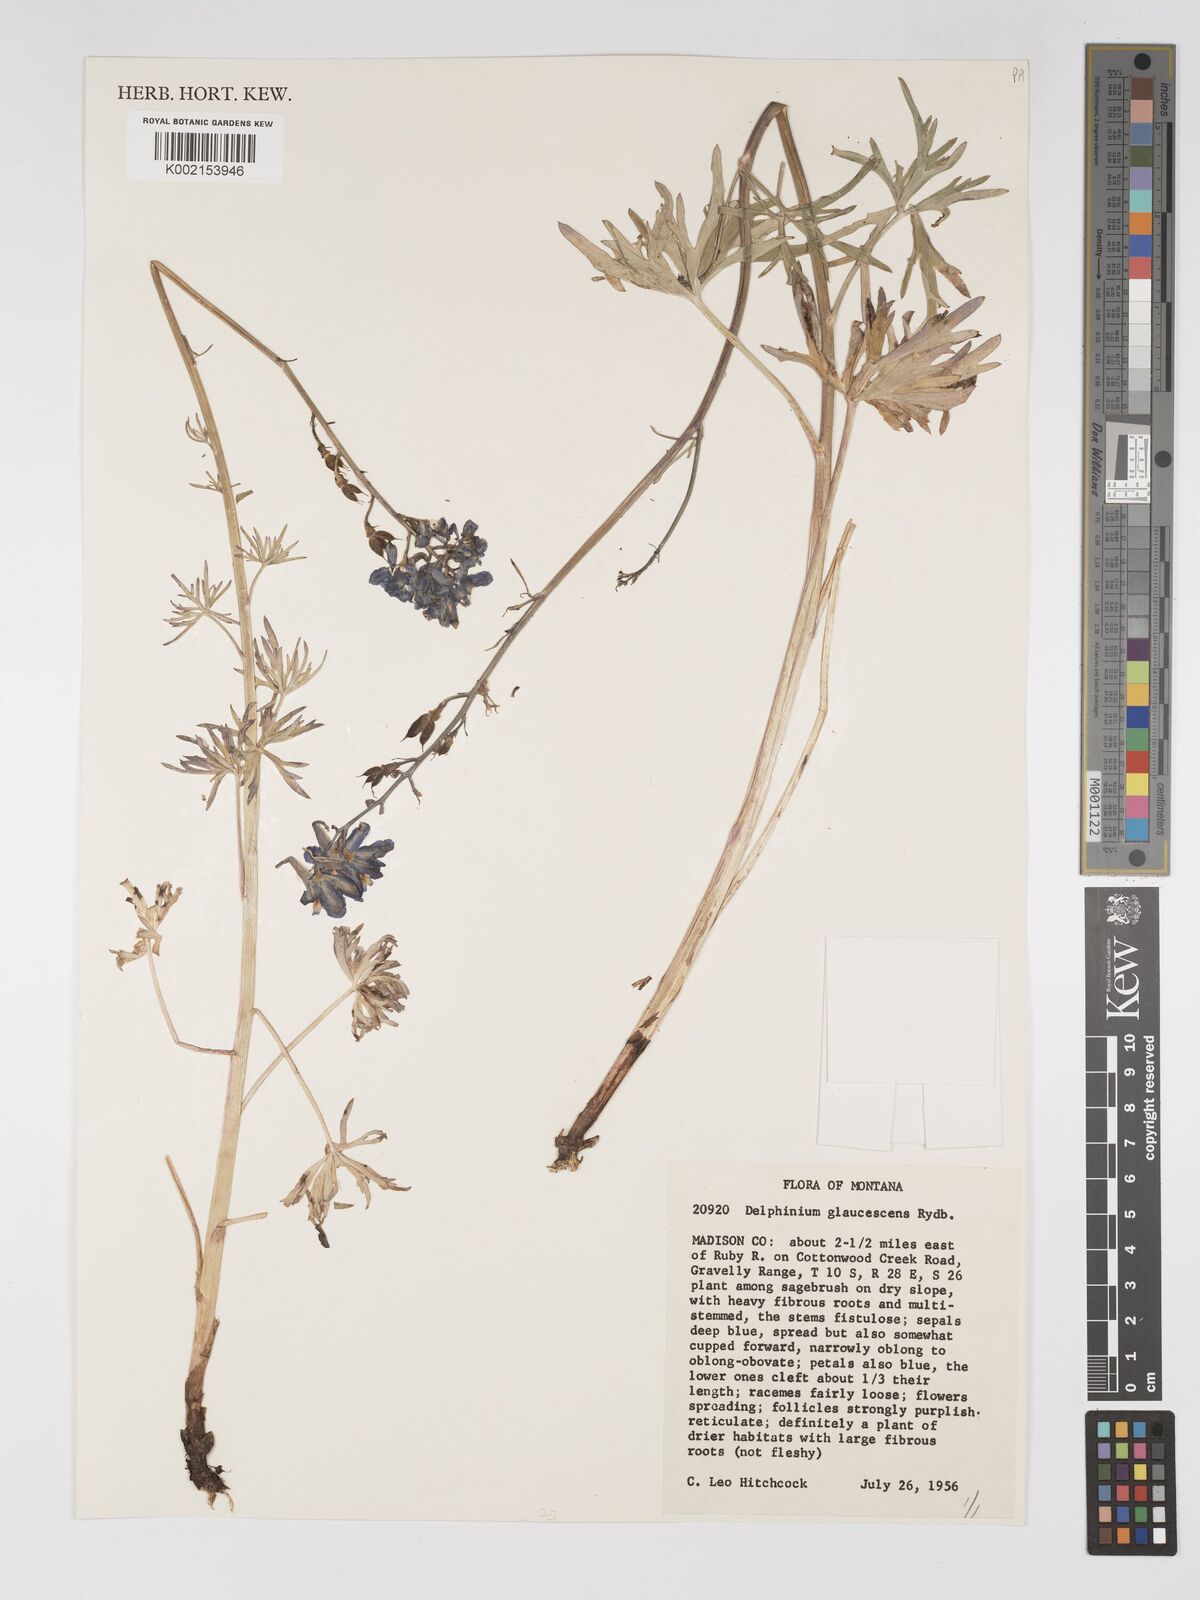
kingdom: Plantae
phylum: Tracheophyta
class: Magnoliopsida
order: Ranunculales
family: Ranunculaceae
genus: Delphinium
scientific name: Delphinium glaucescens
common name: Glaucous larkspur
